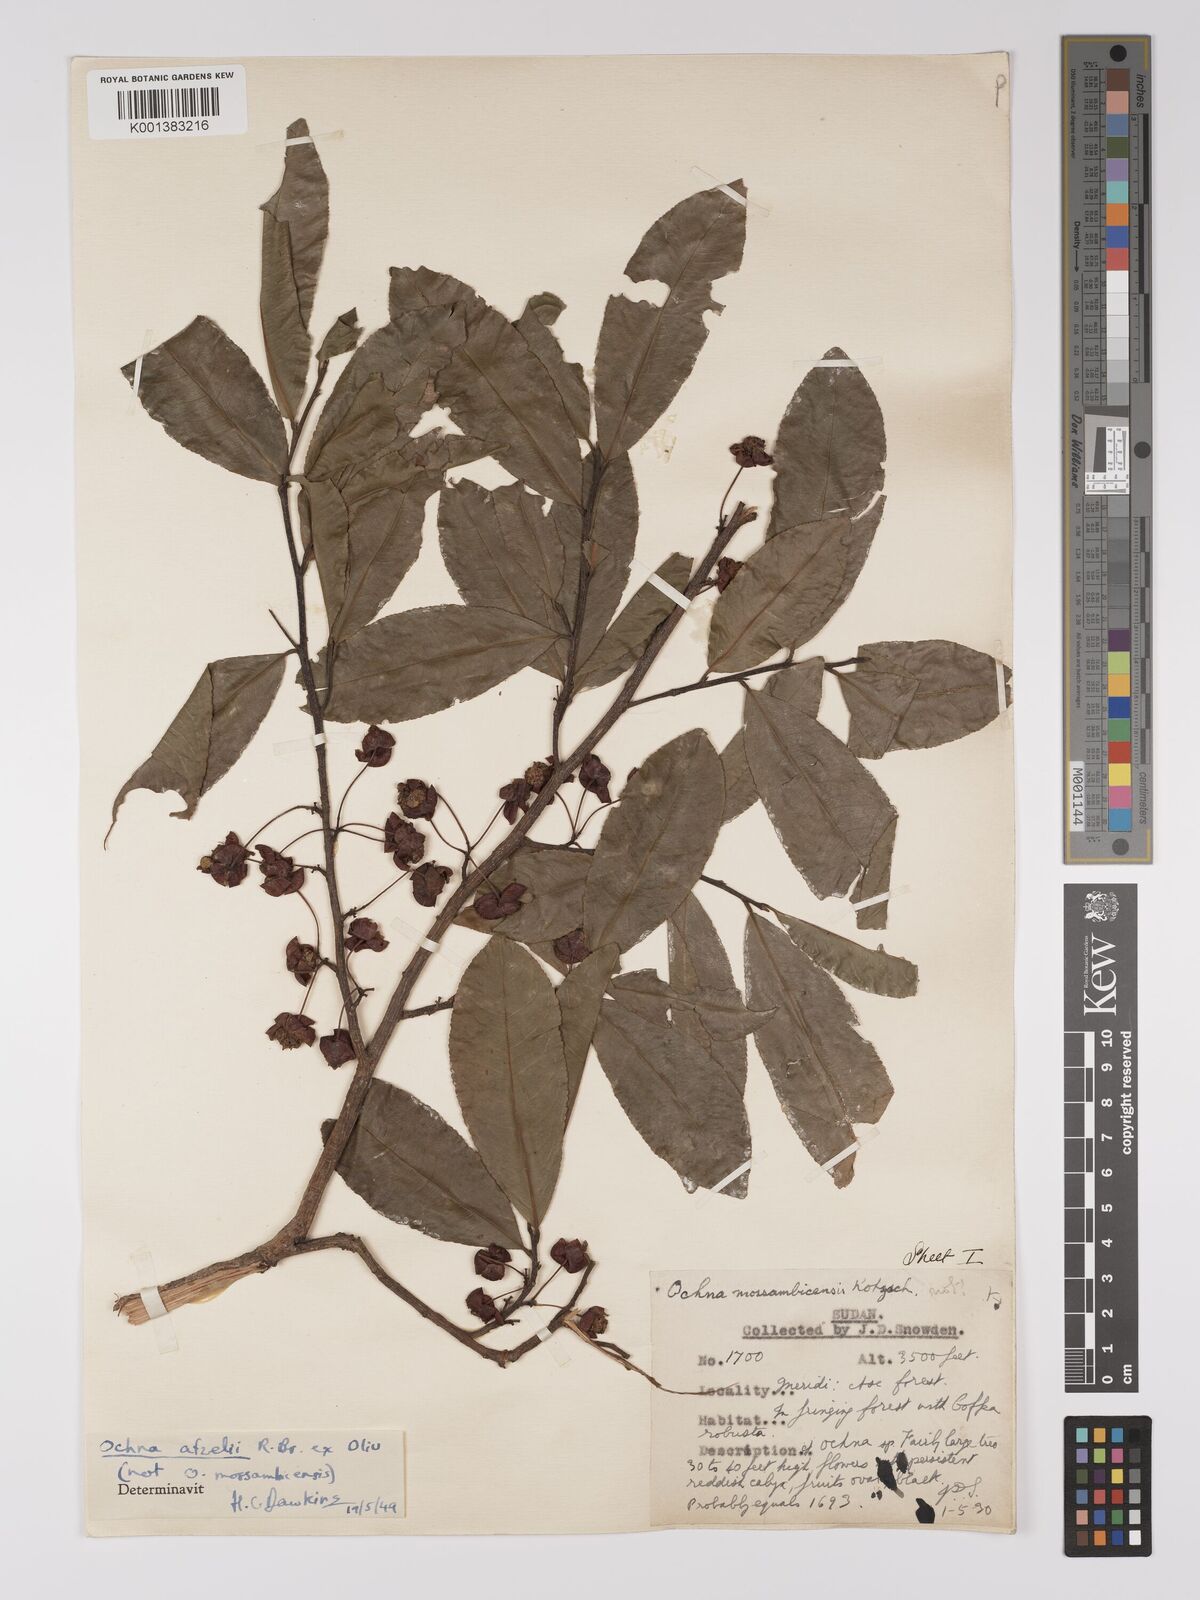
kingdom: Plantae
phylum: Tracheophyta
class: Magnoliopsida
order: Malpighiales
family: Ochnaceae
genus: Ochna
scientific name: Ochna afzelii
